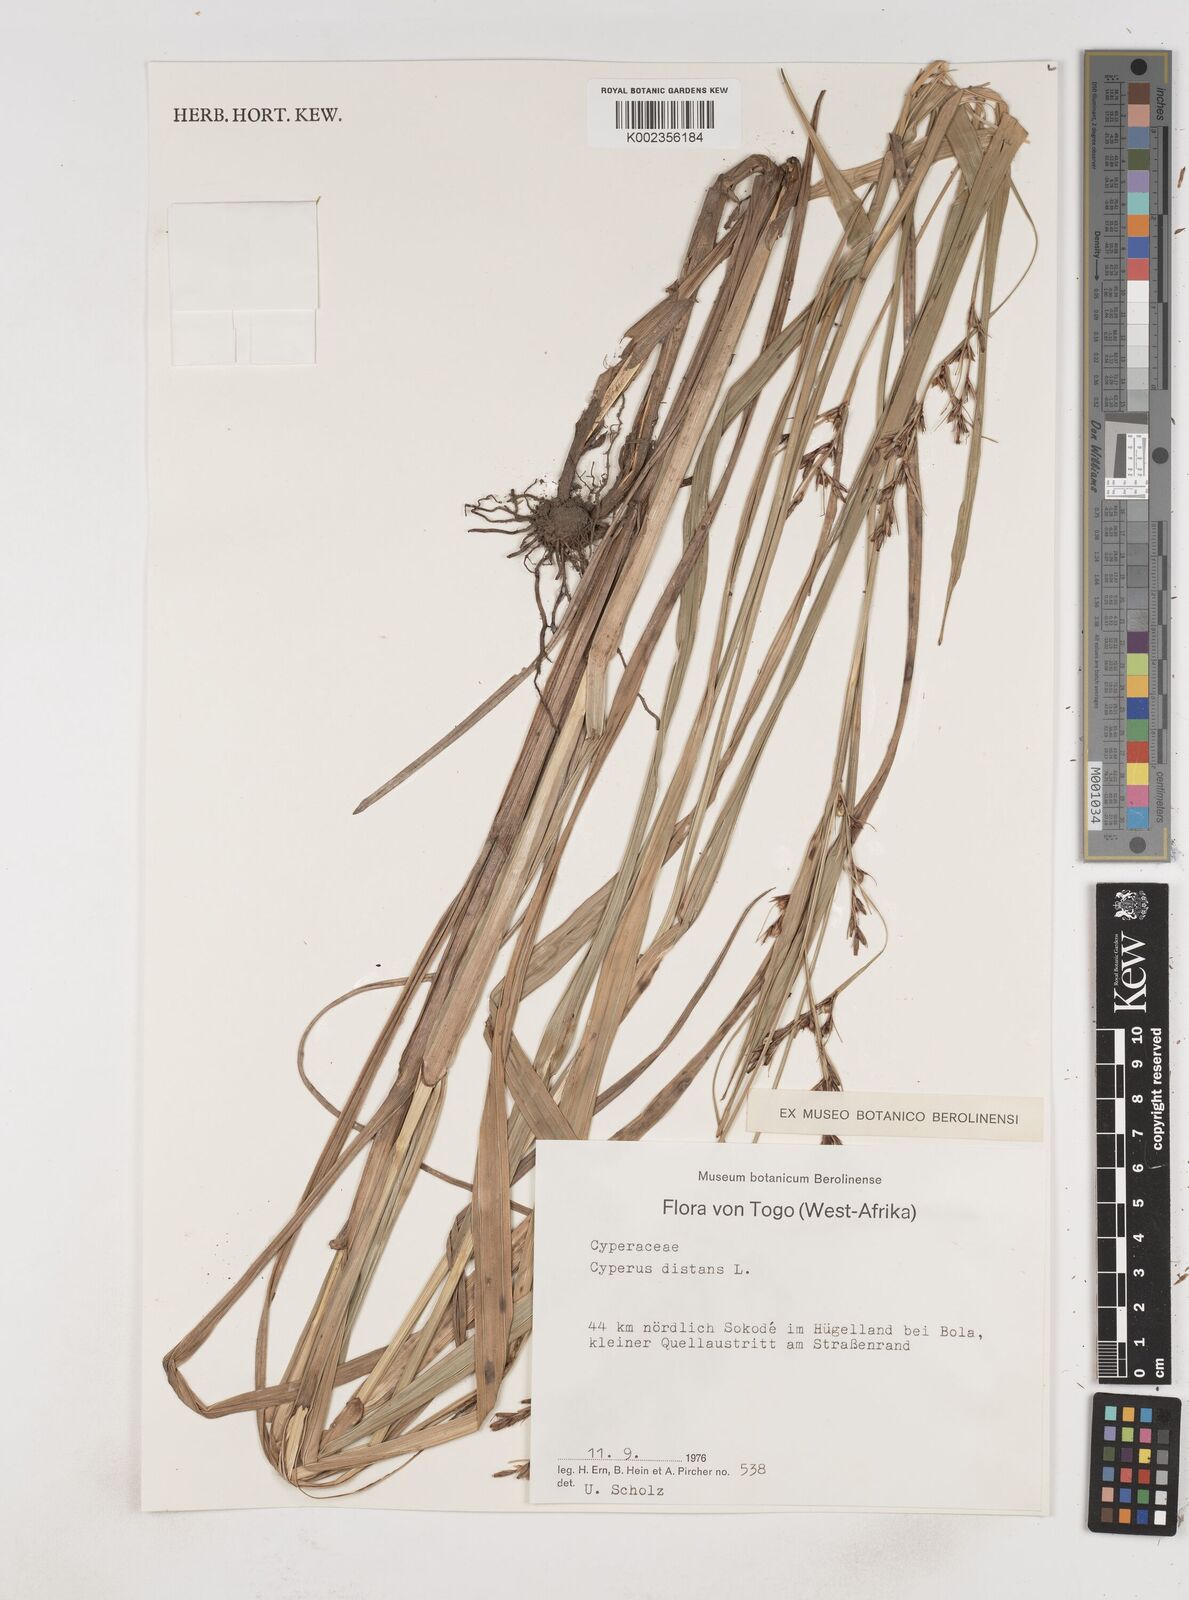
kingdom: Plantae
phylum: Tracheophyta
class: Liliopsida
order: Poales
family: Cyperaceae
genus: Cyperus
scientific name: Cyperus distans
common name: Slender cyperus
